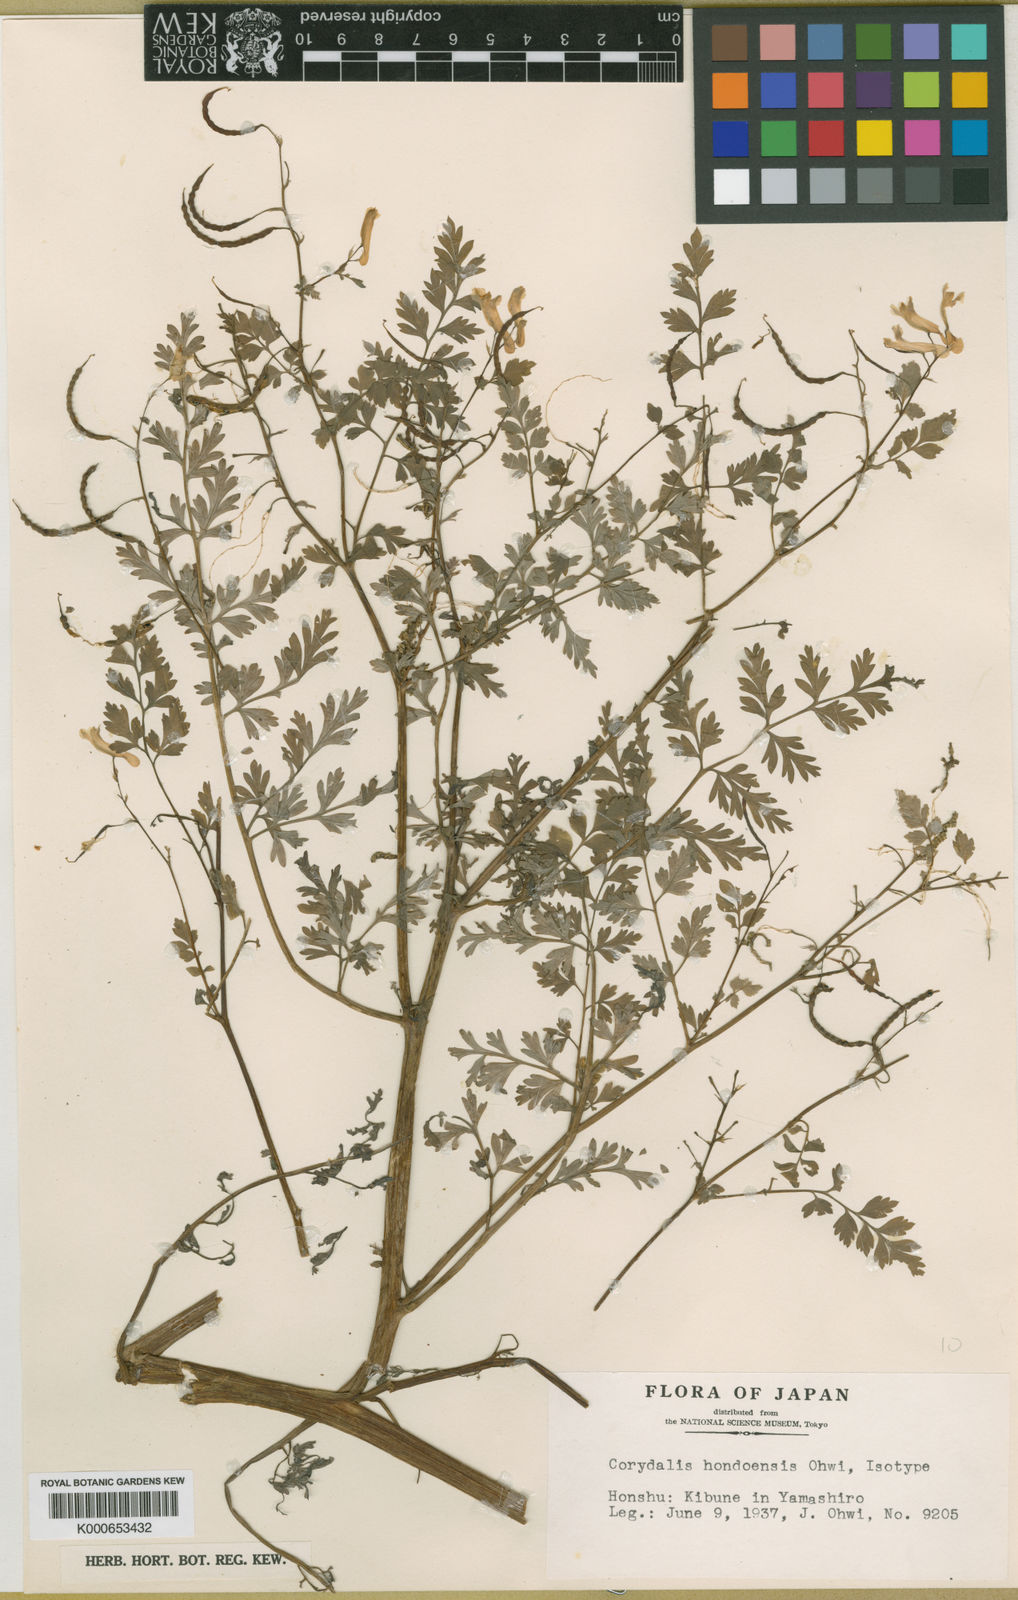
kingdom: Plantae
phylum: Tracheophyta
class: Magnoliopsida
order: Ranunculales
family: Papaveraceae
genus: Corydalis
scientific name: Corydalis pallida
